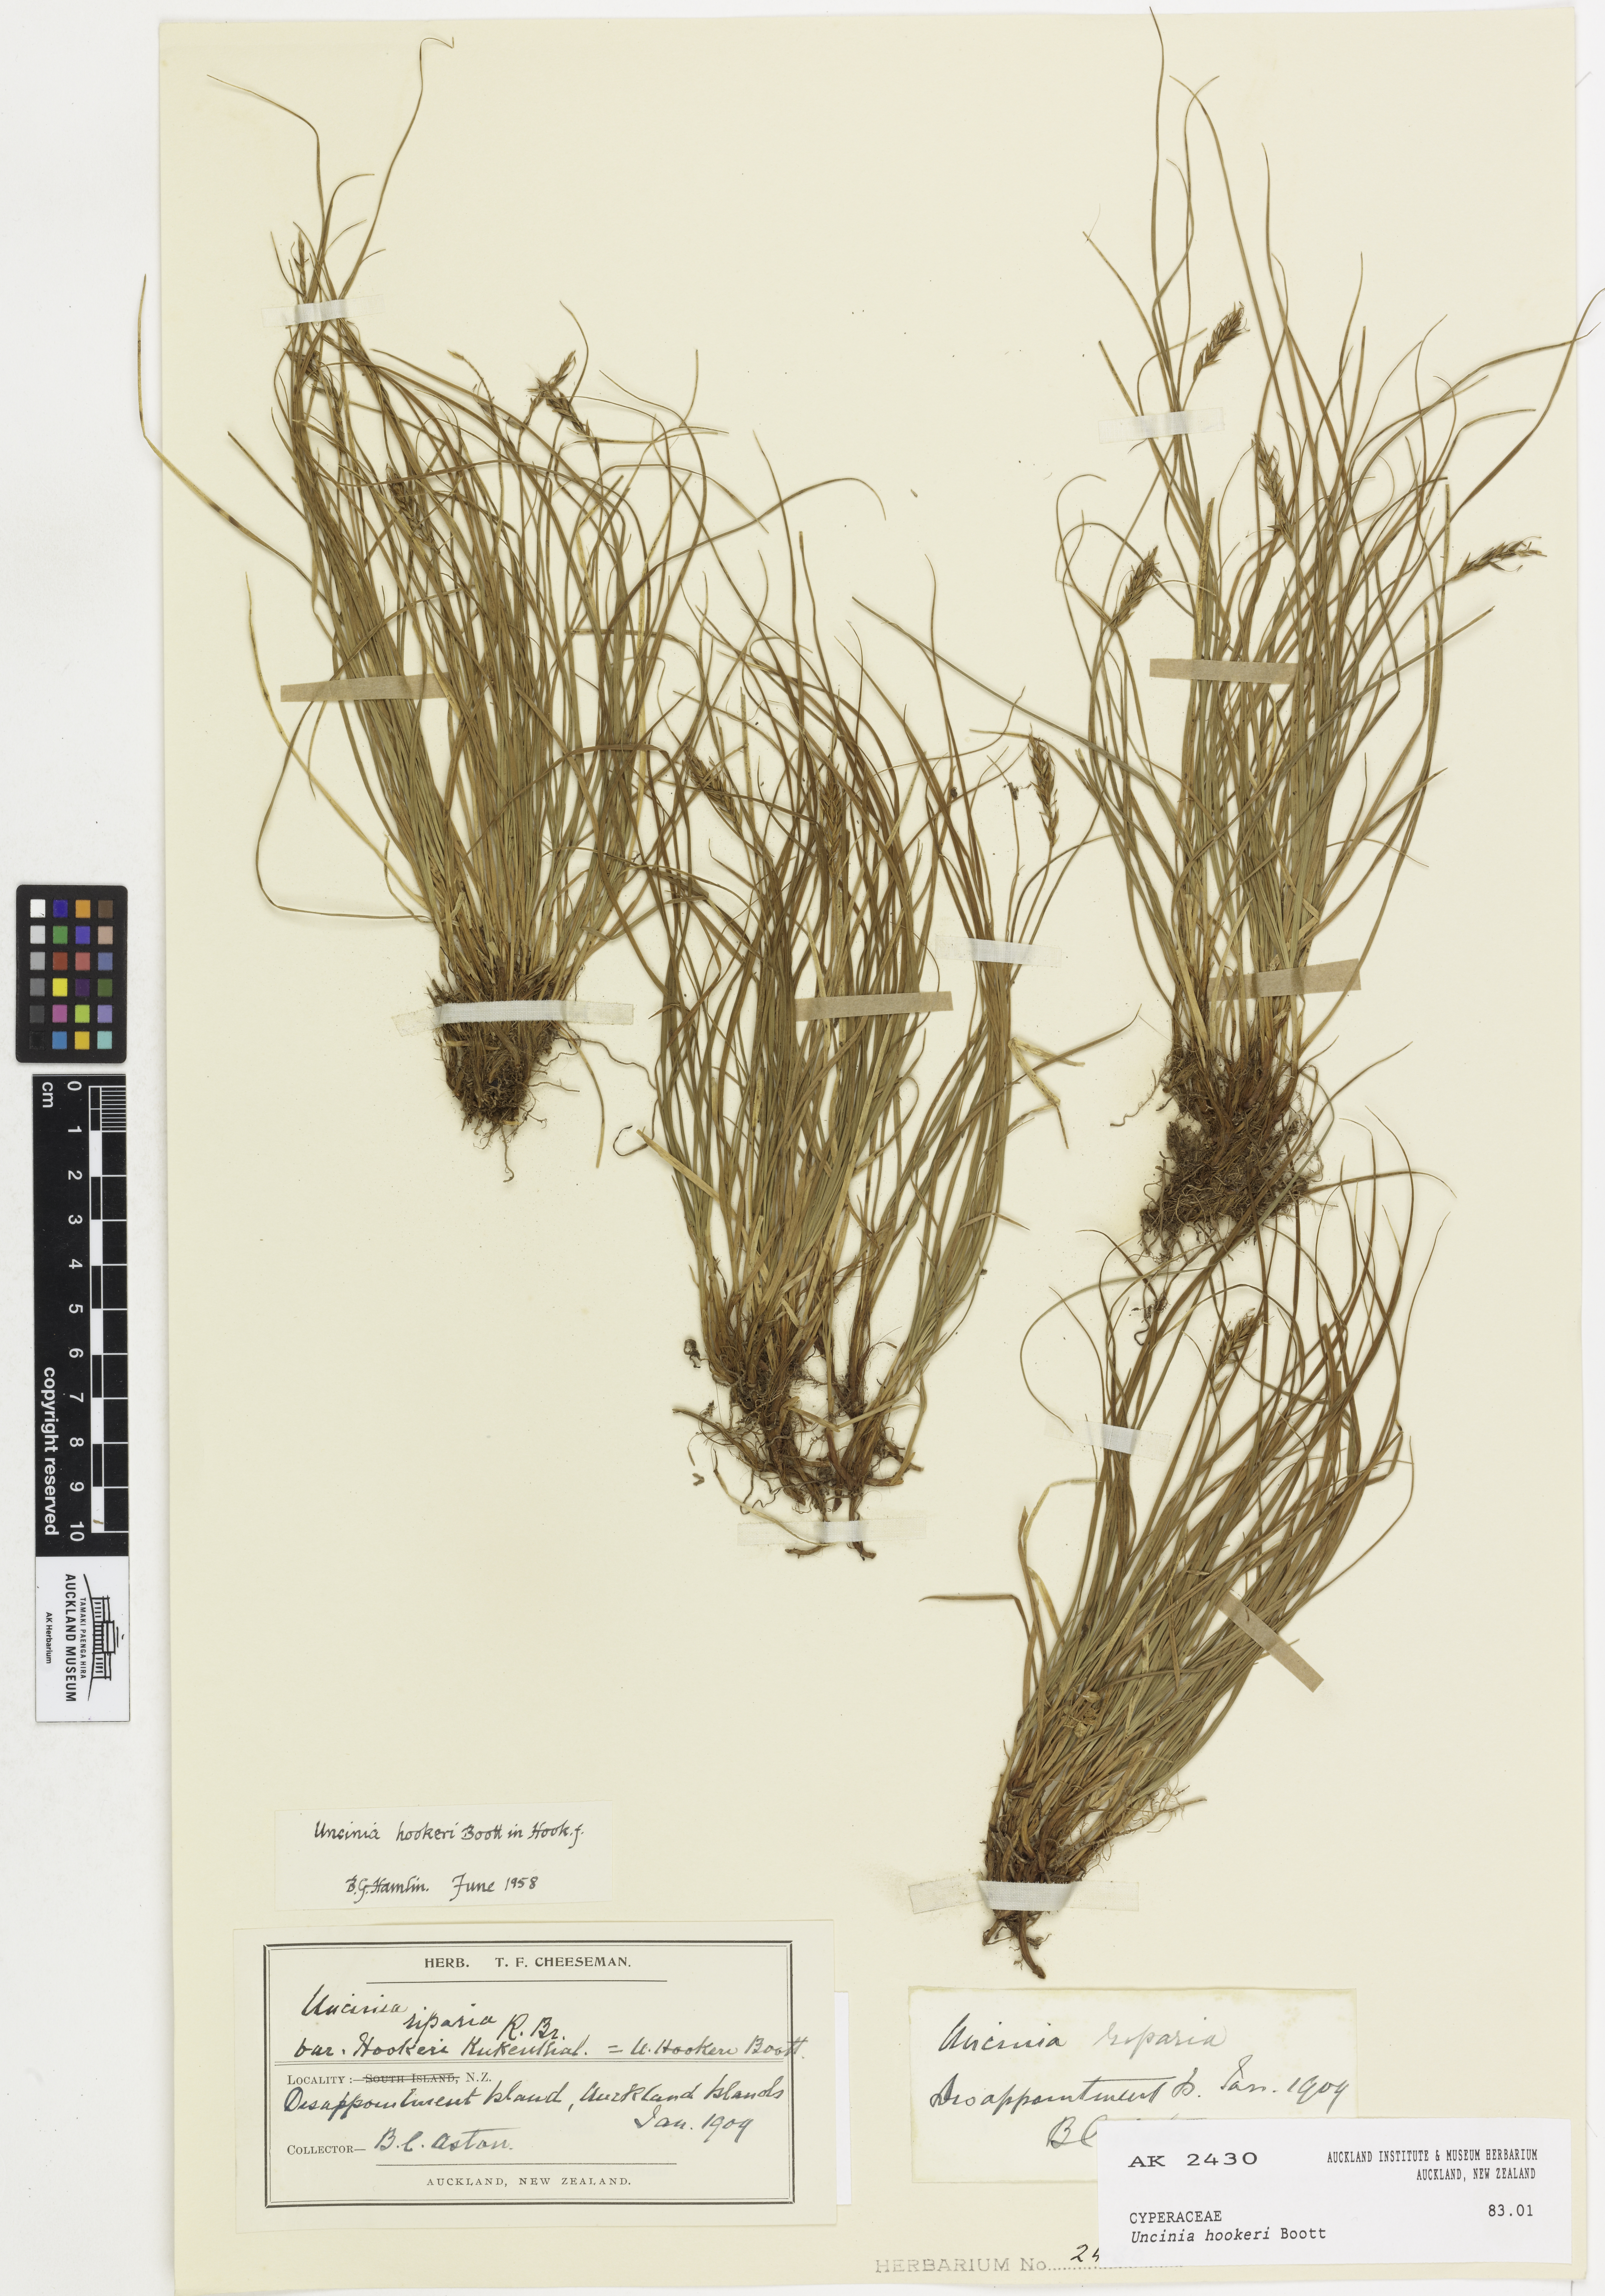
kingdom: Plantae
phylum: Tracheophyta
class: Liliopsida
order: Poales
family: Cyperaceae
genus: Carex
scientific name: Carex erebus
